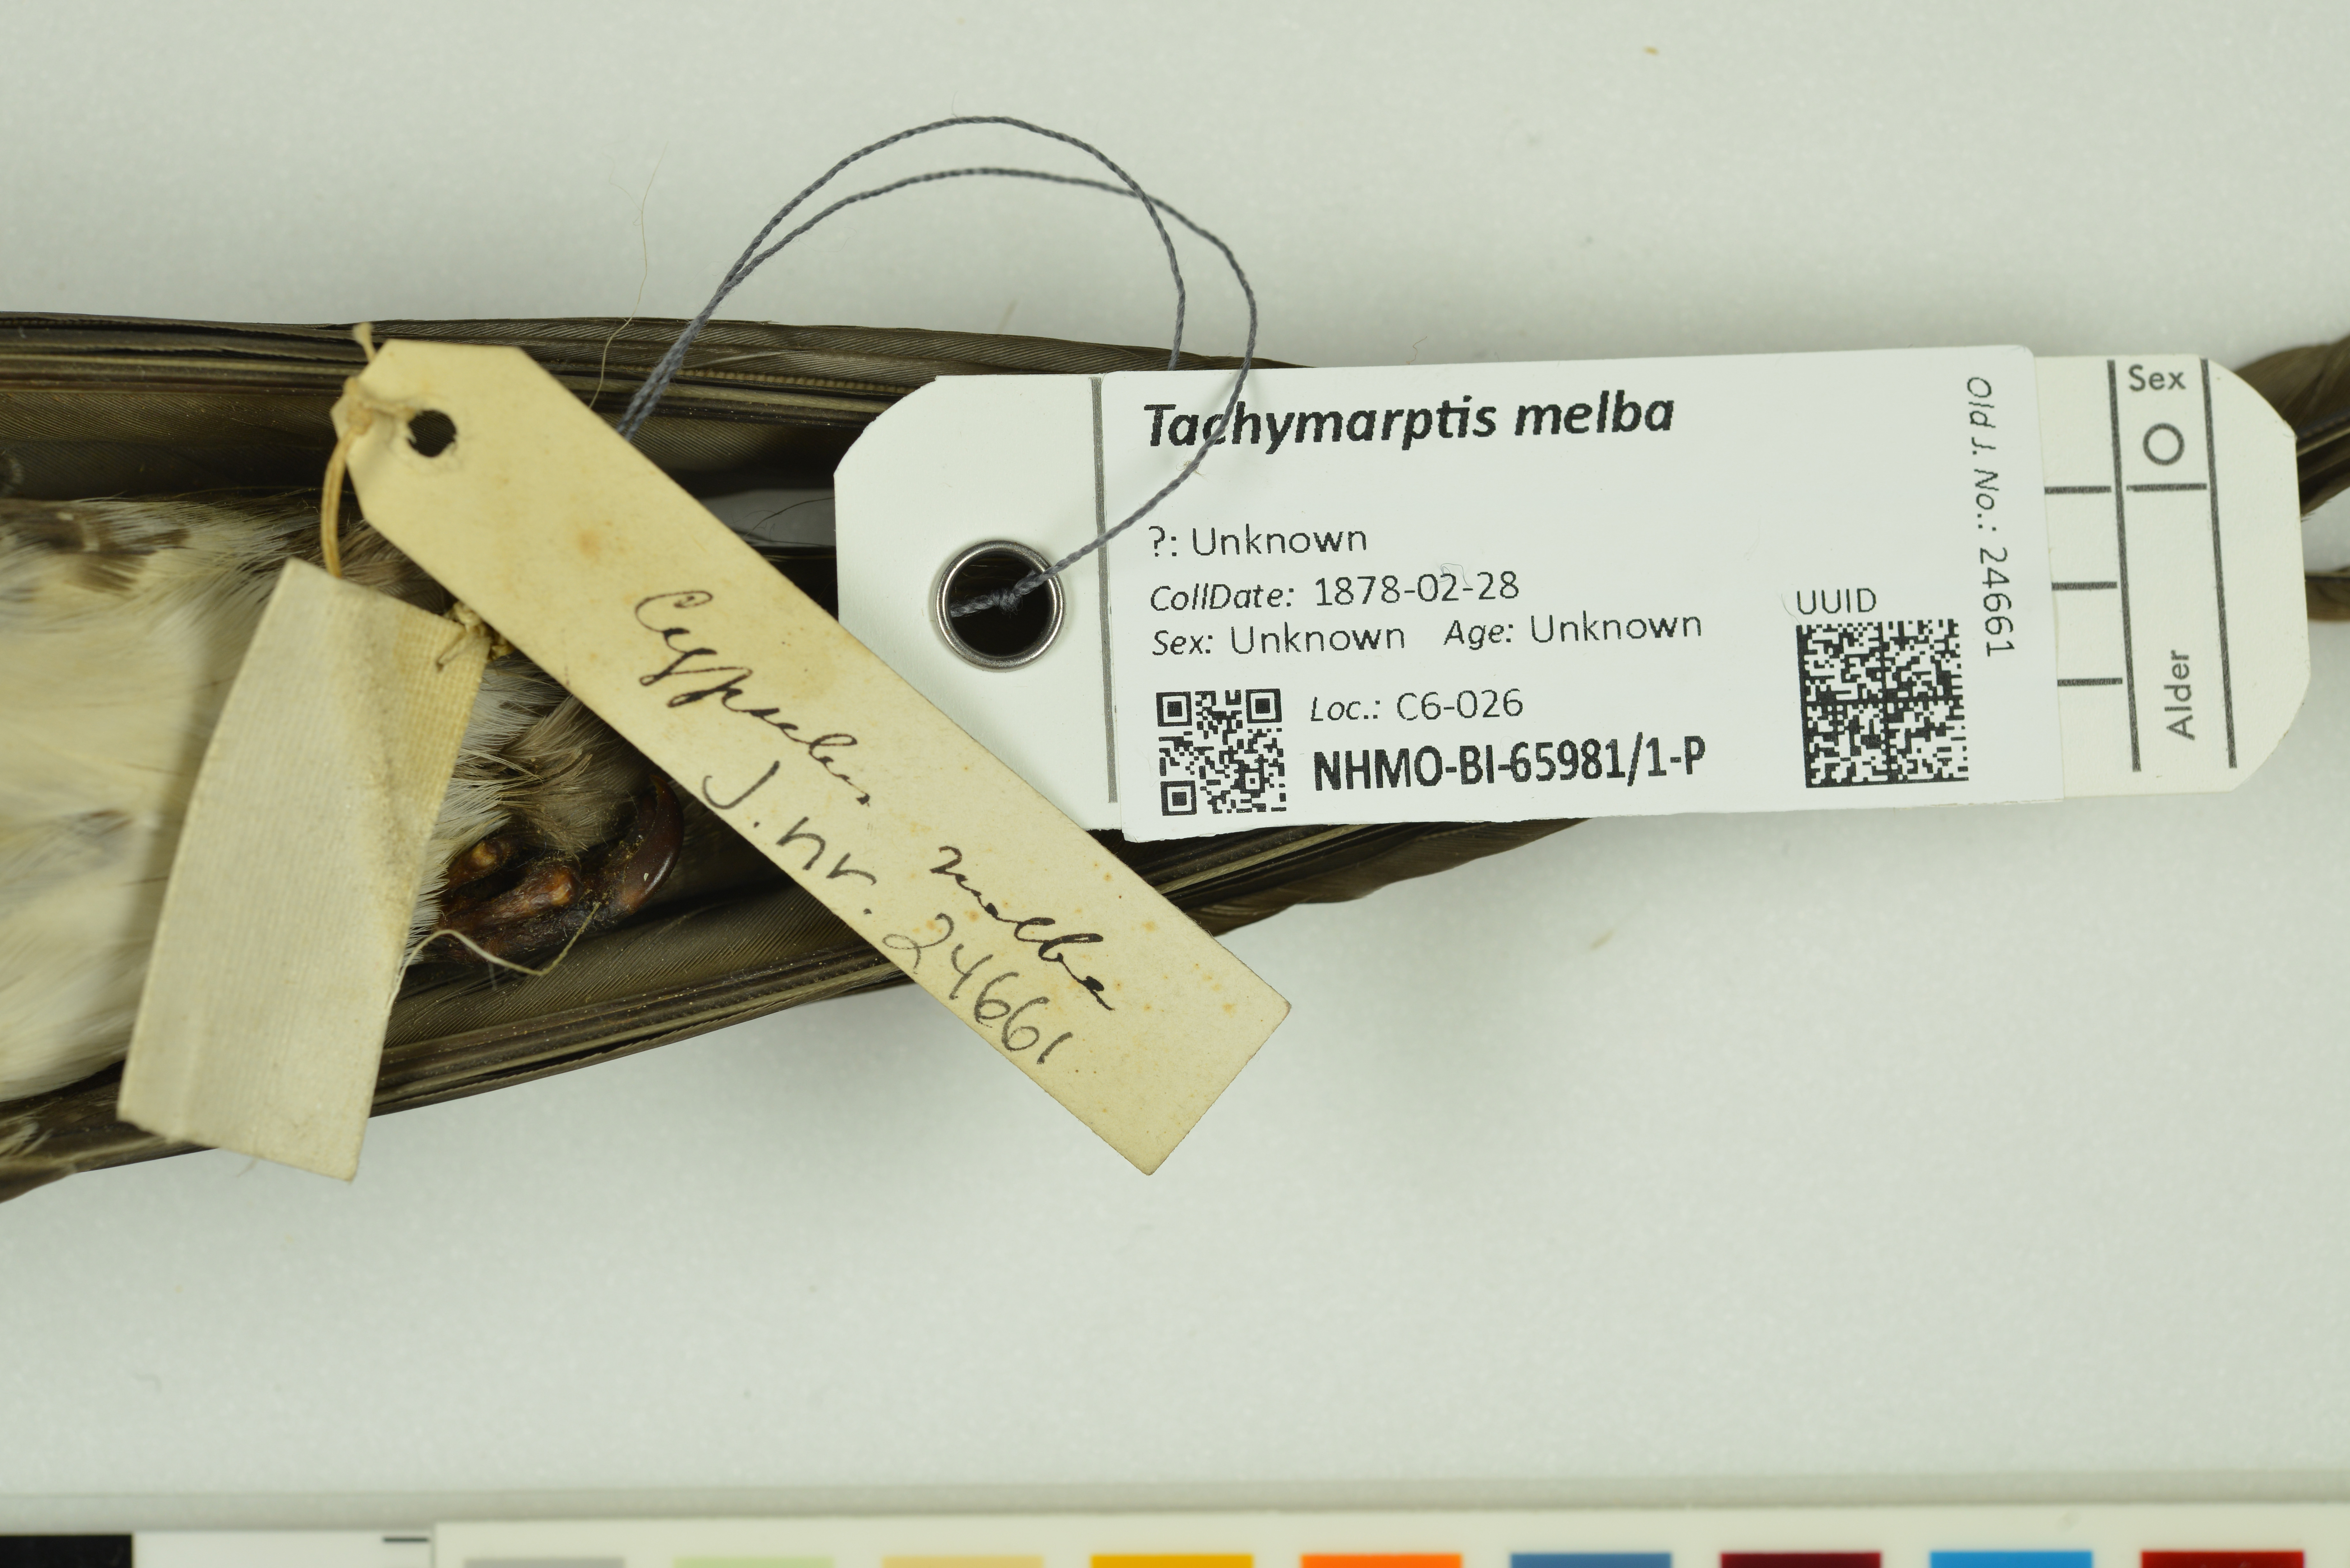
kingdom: Animalia
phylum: Chordata
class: Aves
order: Apodiformes
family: Apodidae
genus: Tachymarptis
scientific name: Tachymarptis melba
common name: Alpine swift
